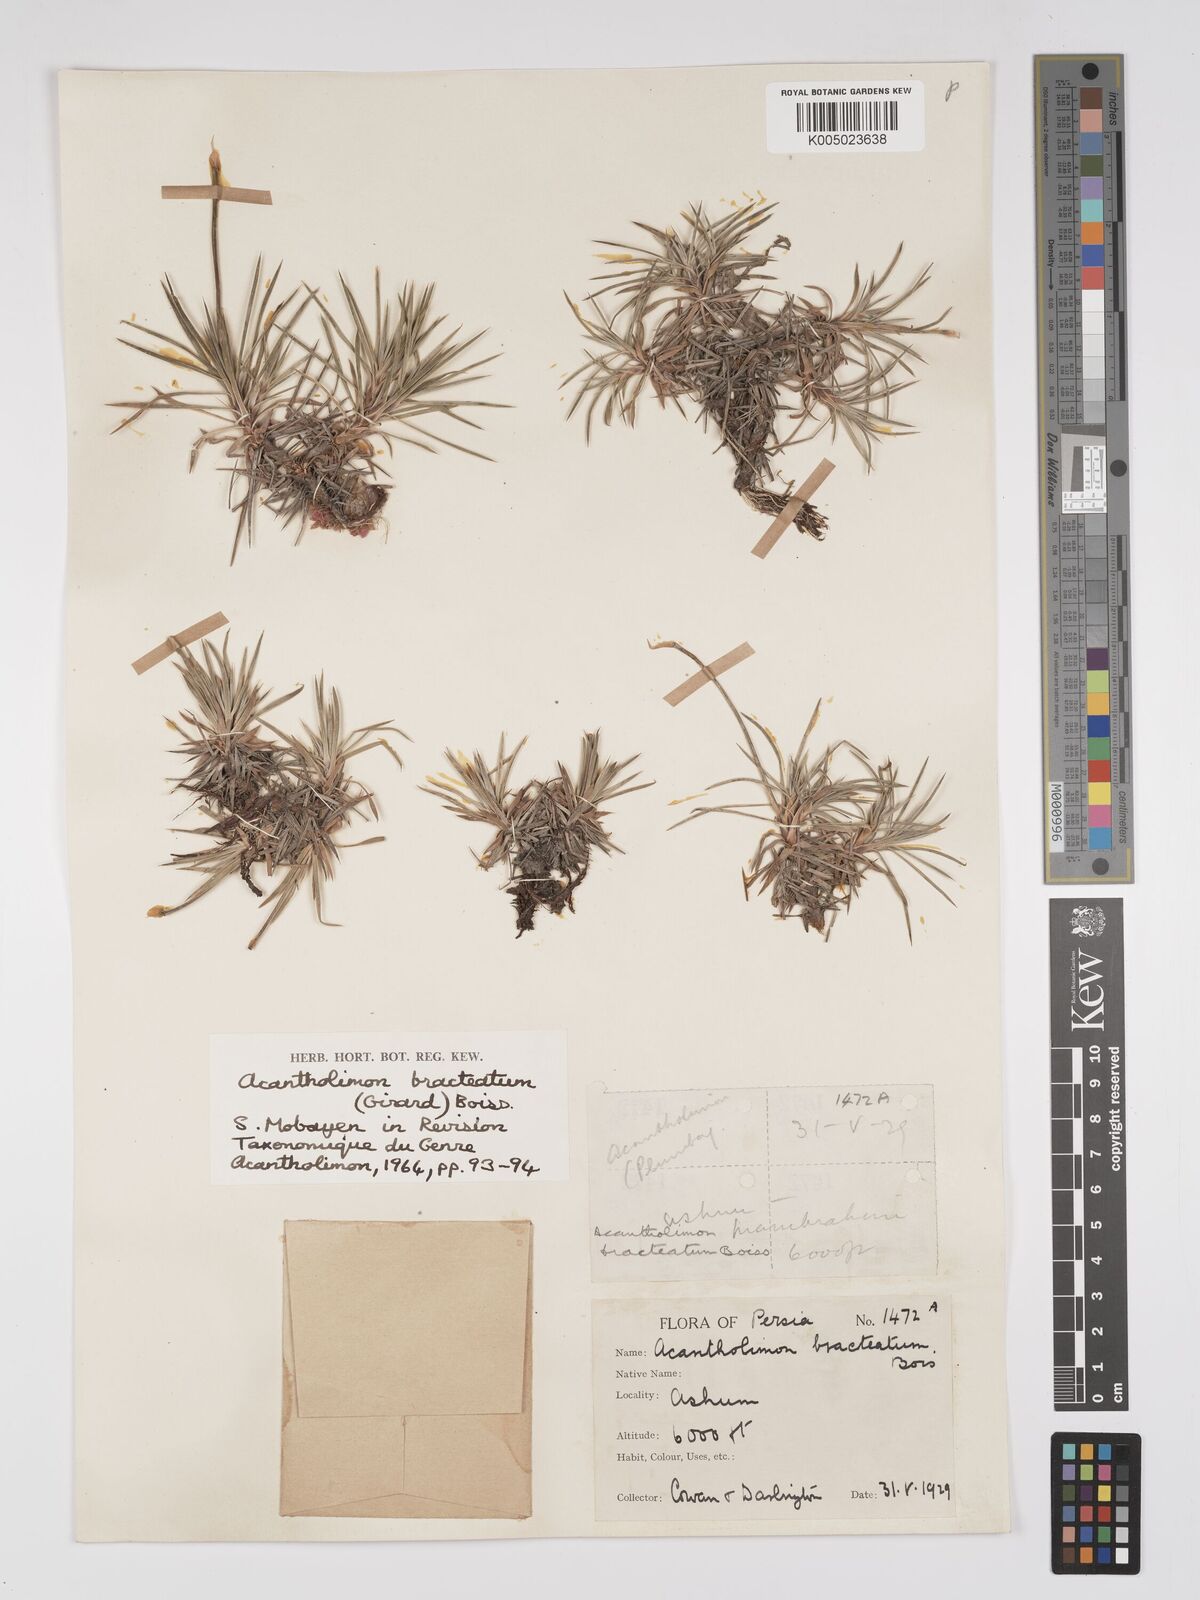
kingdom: Plantae
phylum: Tracheophyta
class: Magnoliopsida
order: Caryophyllales
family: Plumbaginaceae
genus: Acantholimon
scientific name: Acantholimon bracteatum
